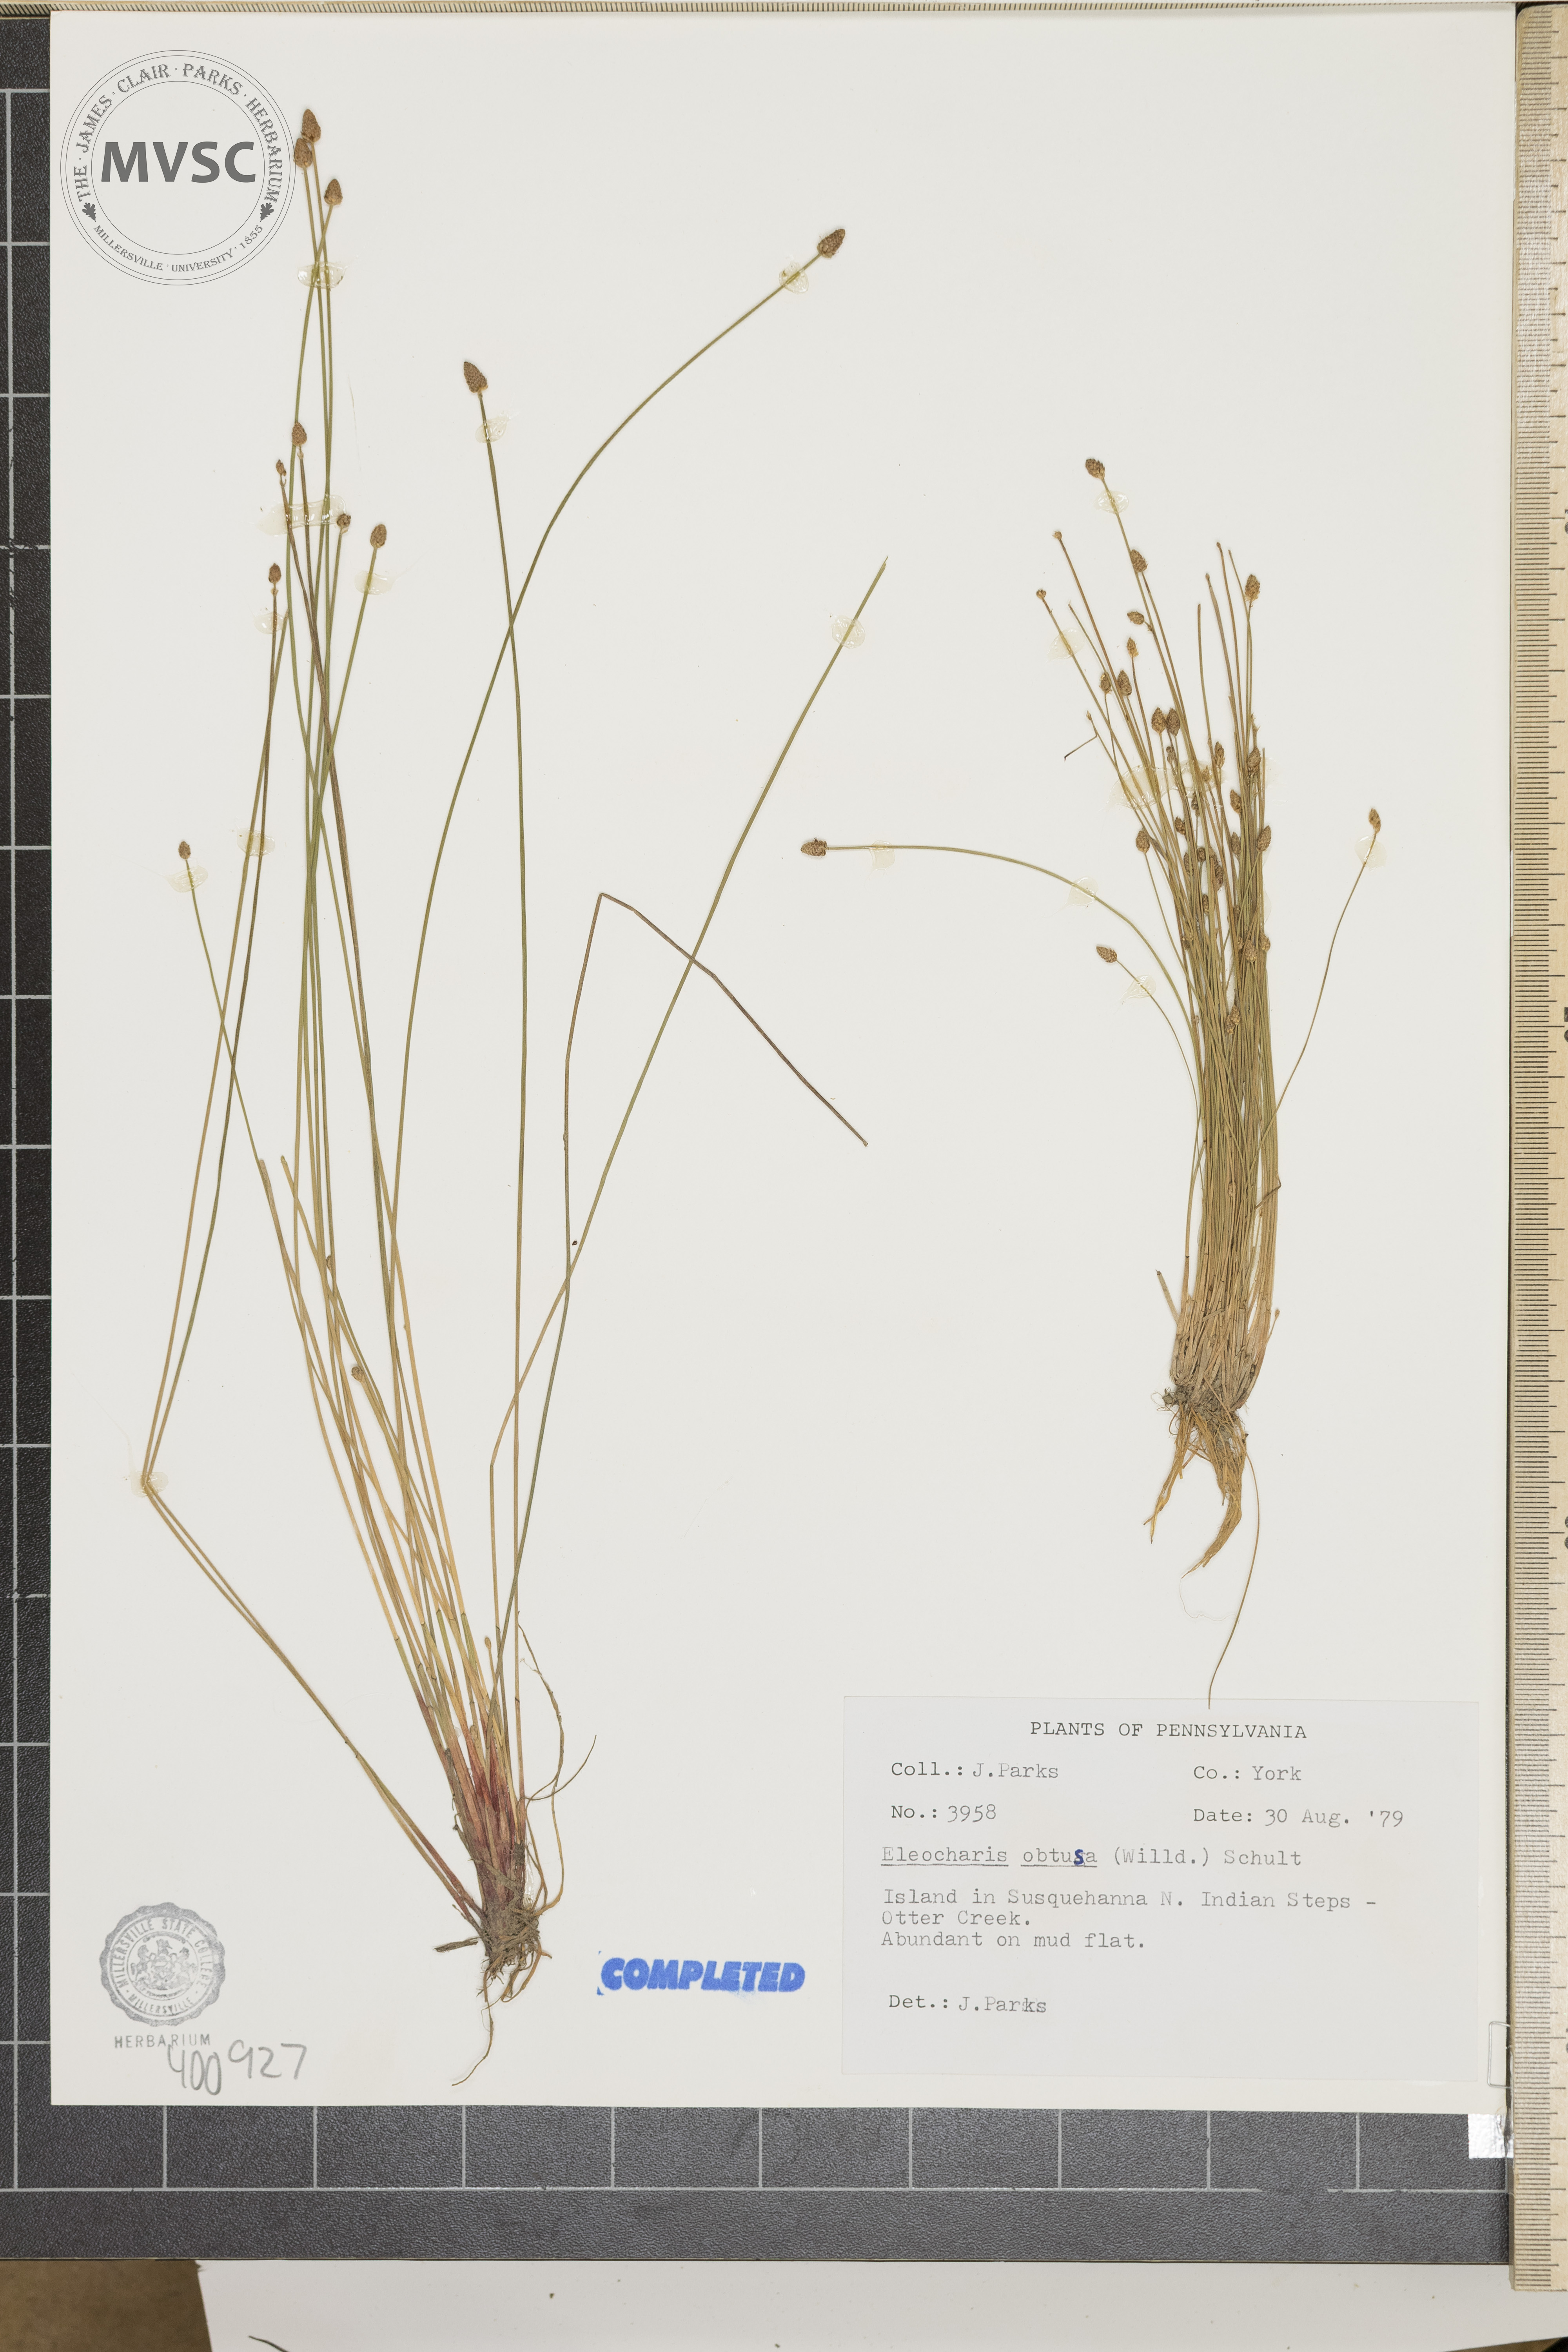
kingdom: Plantae
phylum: Tracheophyta
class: Liliopsida
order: Poales
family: Cyperaceae
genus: Eleocharis
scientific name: Eleocharis obtusa
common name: Blunt spikerush
